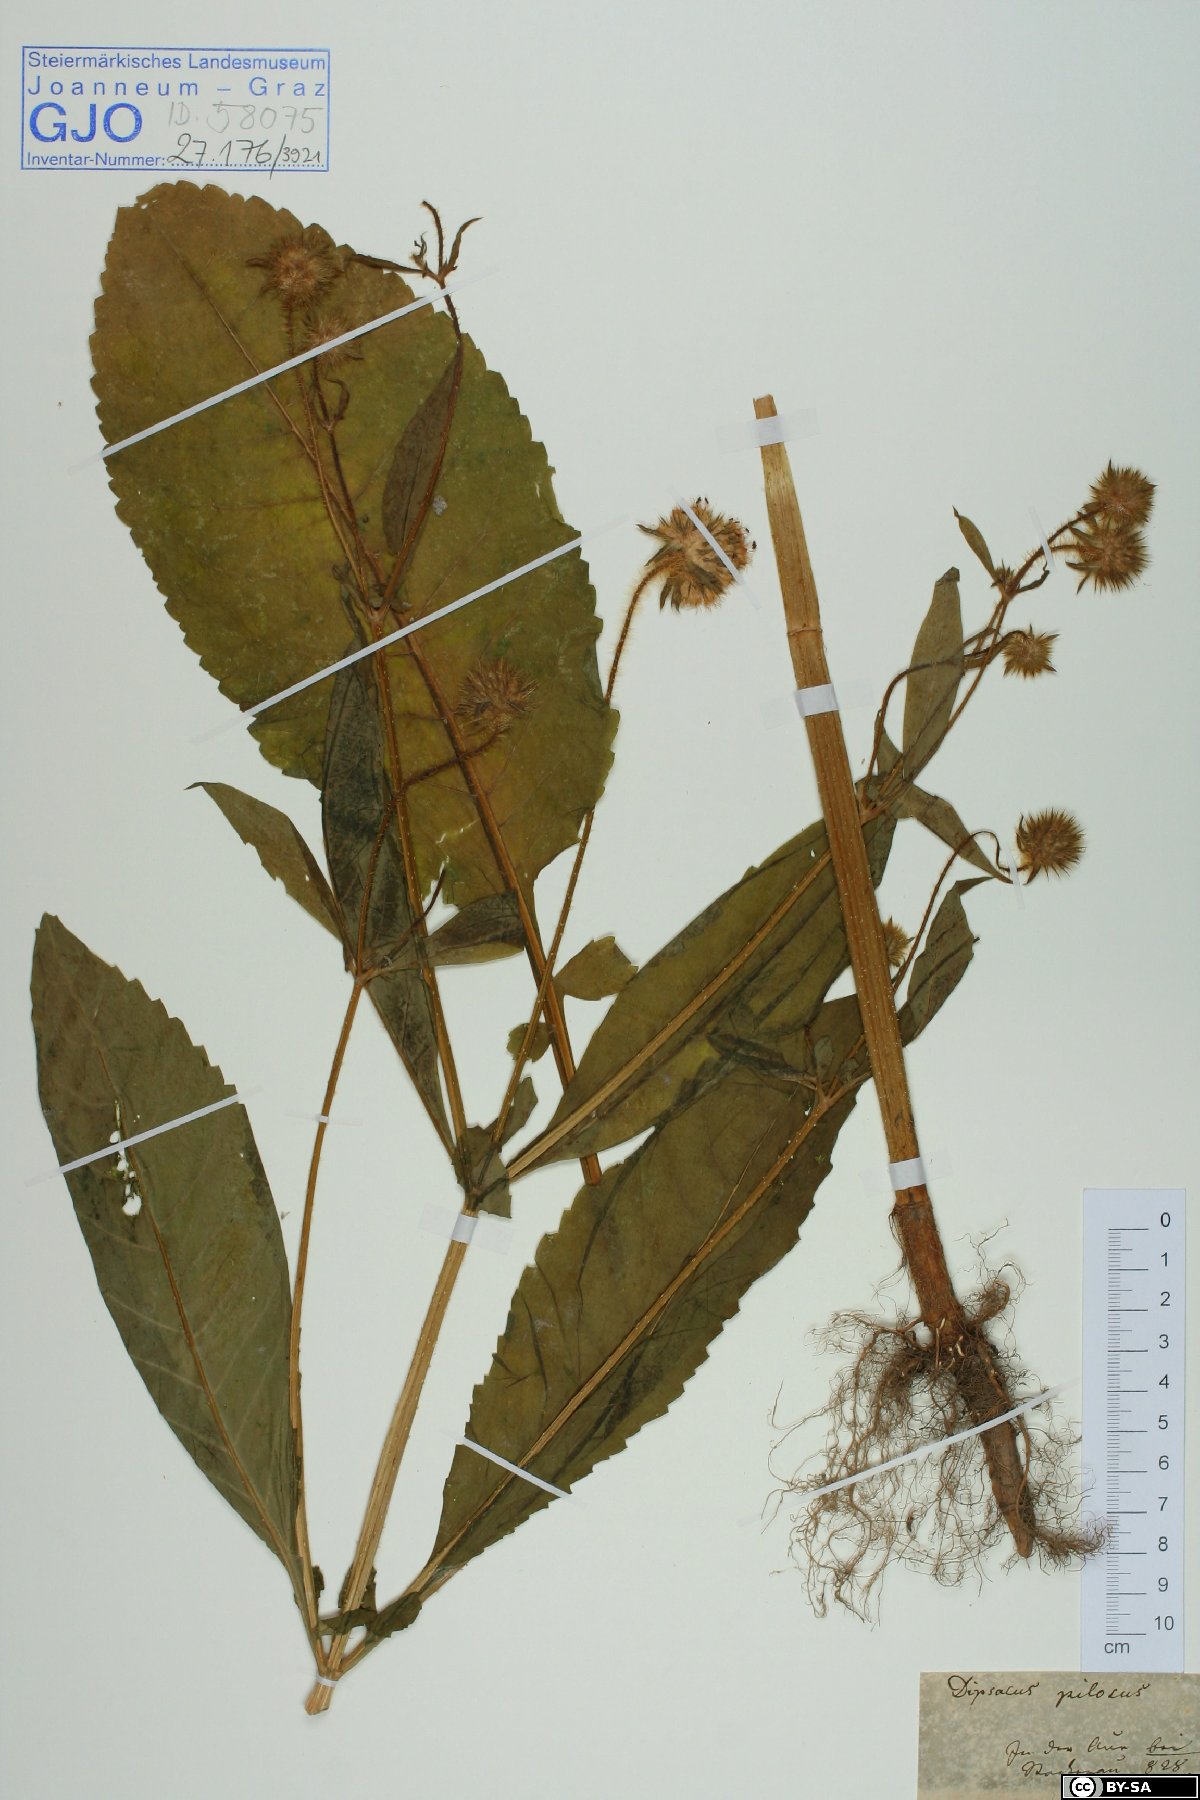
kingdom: Plantae
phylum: Tracheophyta
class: Magnoliopsida
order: Dipsacales
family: Caprifoliaceae
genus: Dipsacus
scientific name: Dipsacus pilosus
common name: Small teasel
